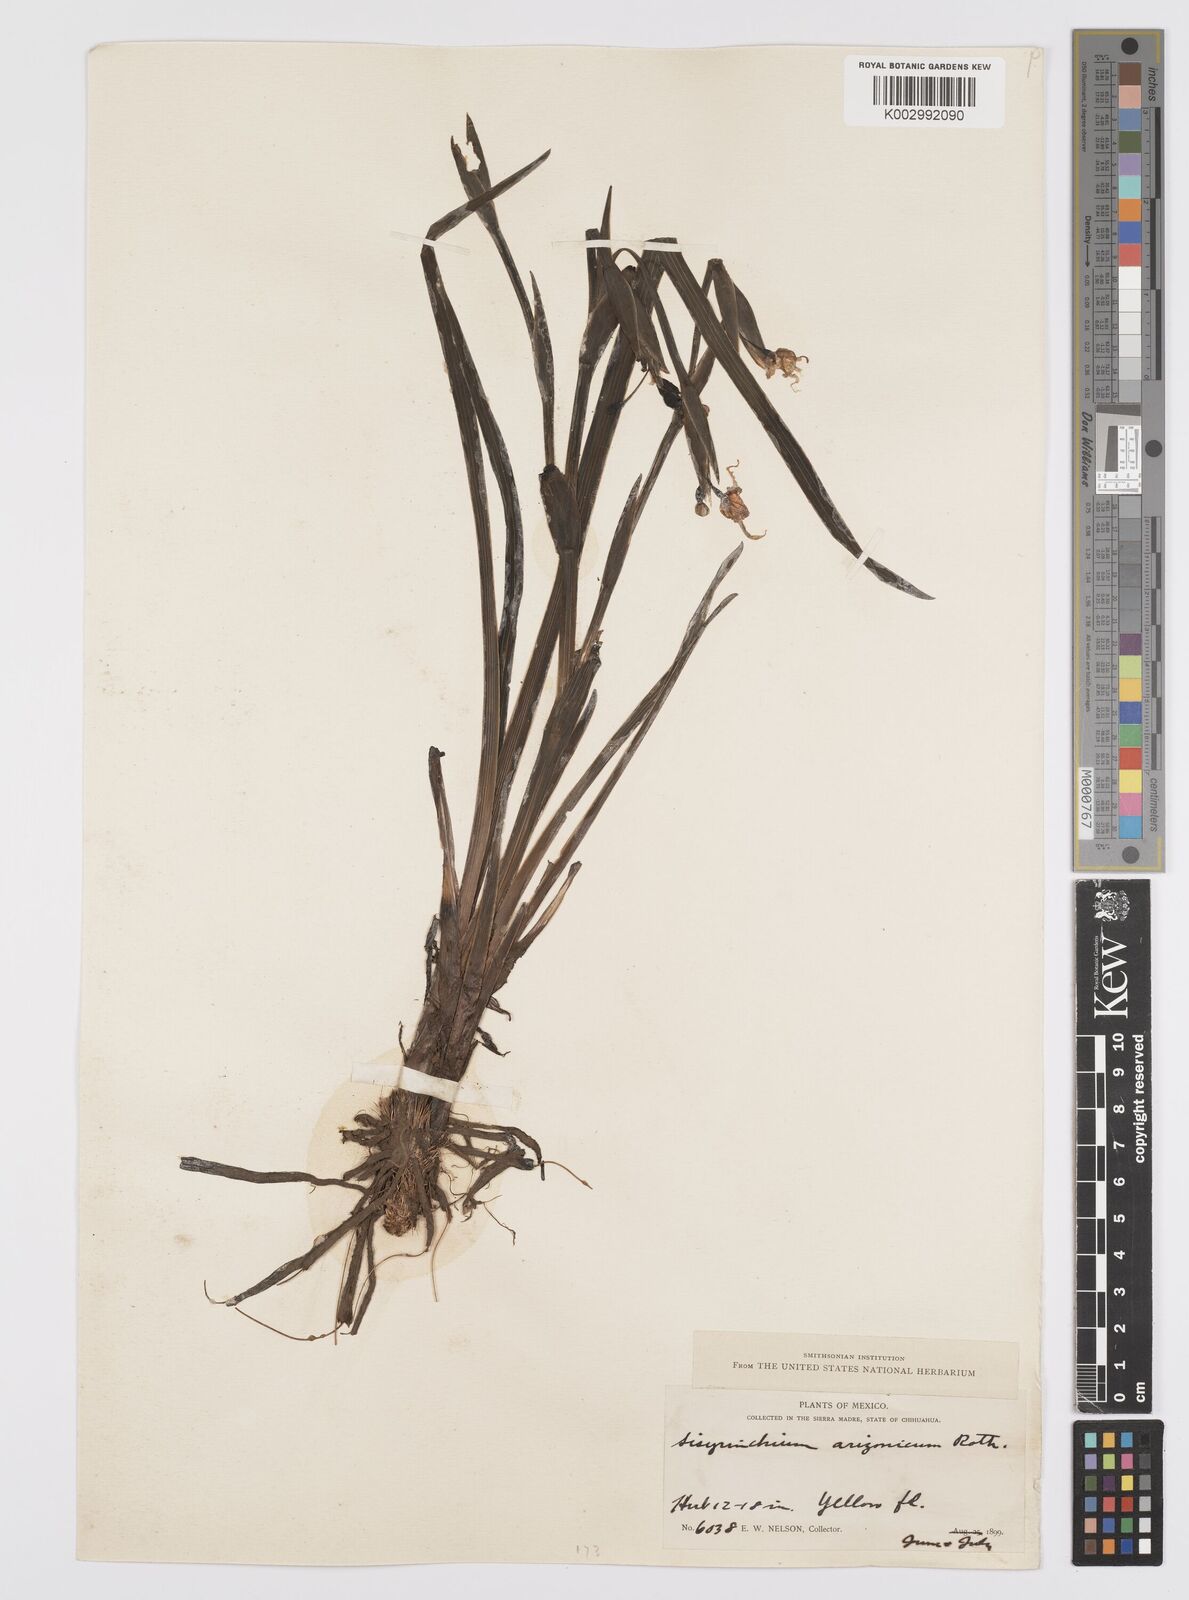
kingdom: Plantae
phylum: Tracheophyta
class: Liliopsida
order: Asparagales
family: Iridaceae
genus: Sisyrinchium
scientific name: Sisyrinchium arizonicum
